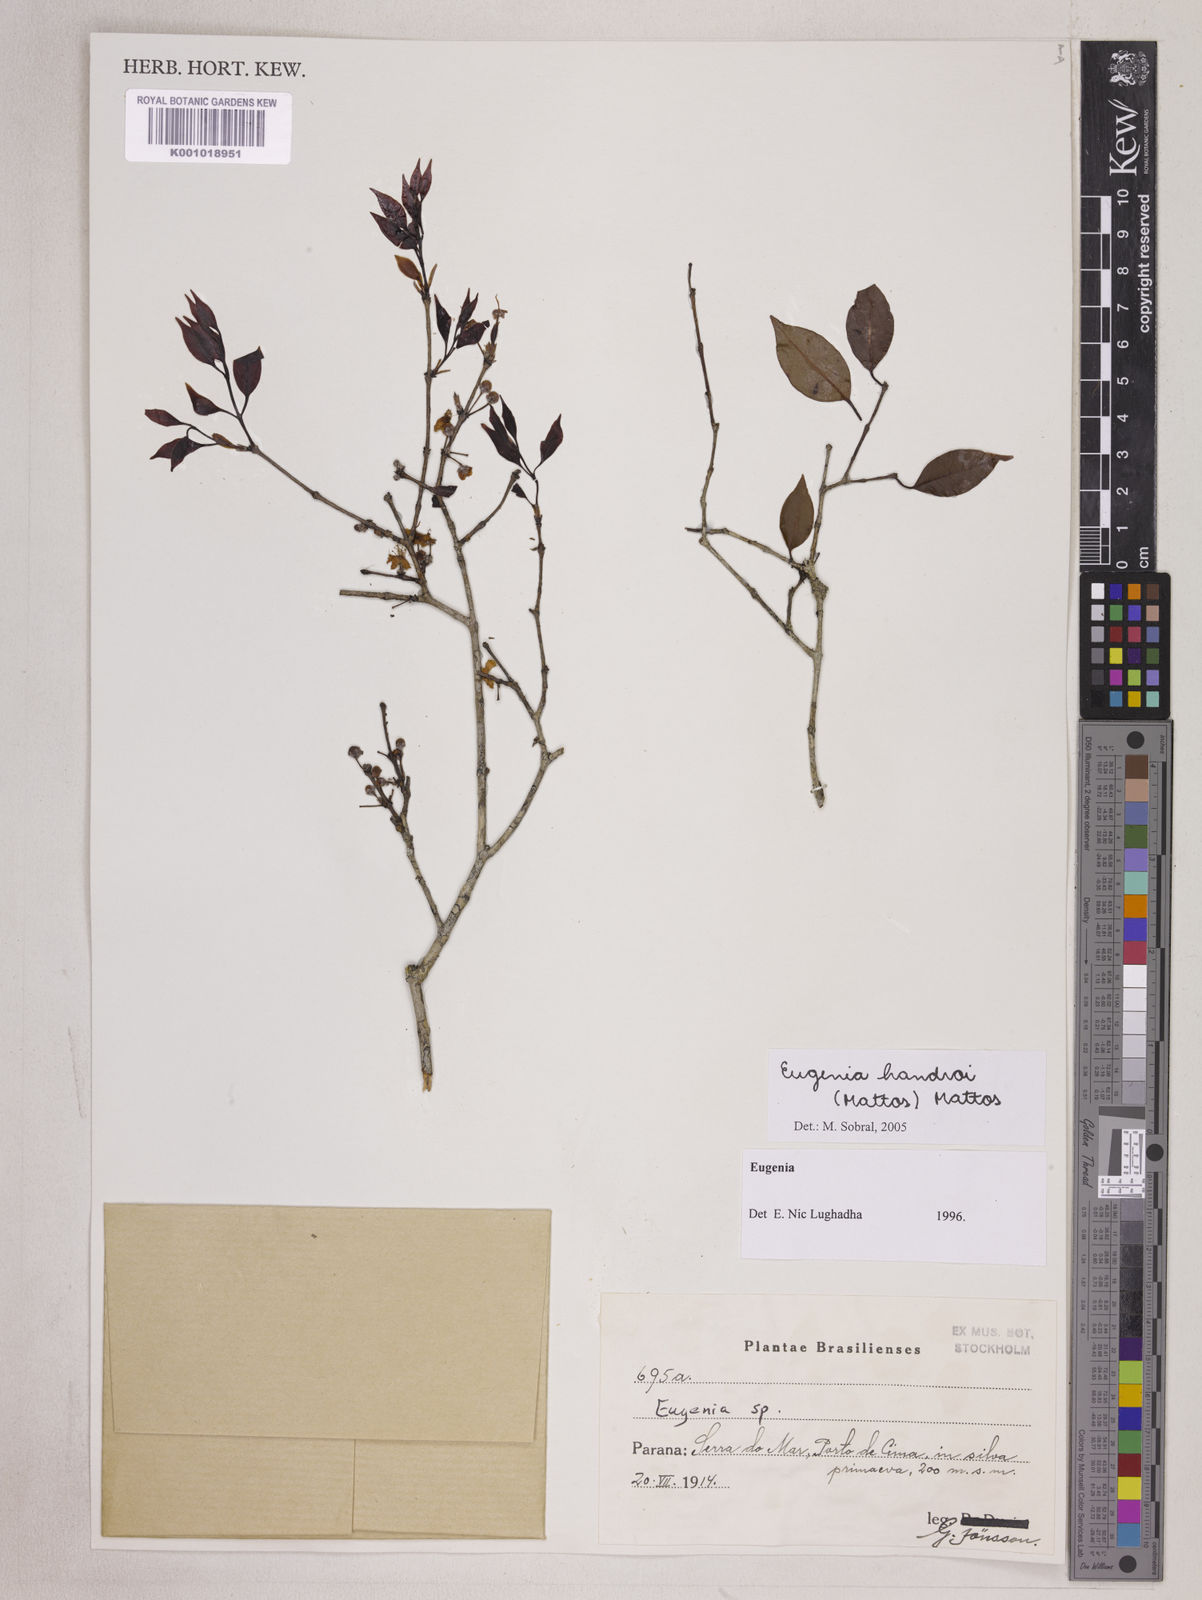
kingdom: Plantae
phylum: Tracheophyta
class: Magnoliopsida
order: Myrtales
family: Myrtaceae
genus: Eugenia
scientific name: Eugenia handroi
